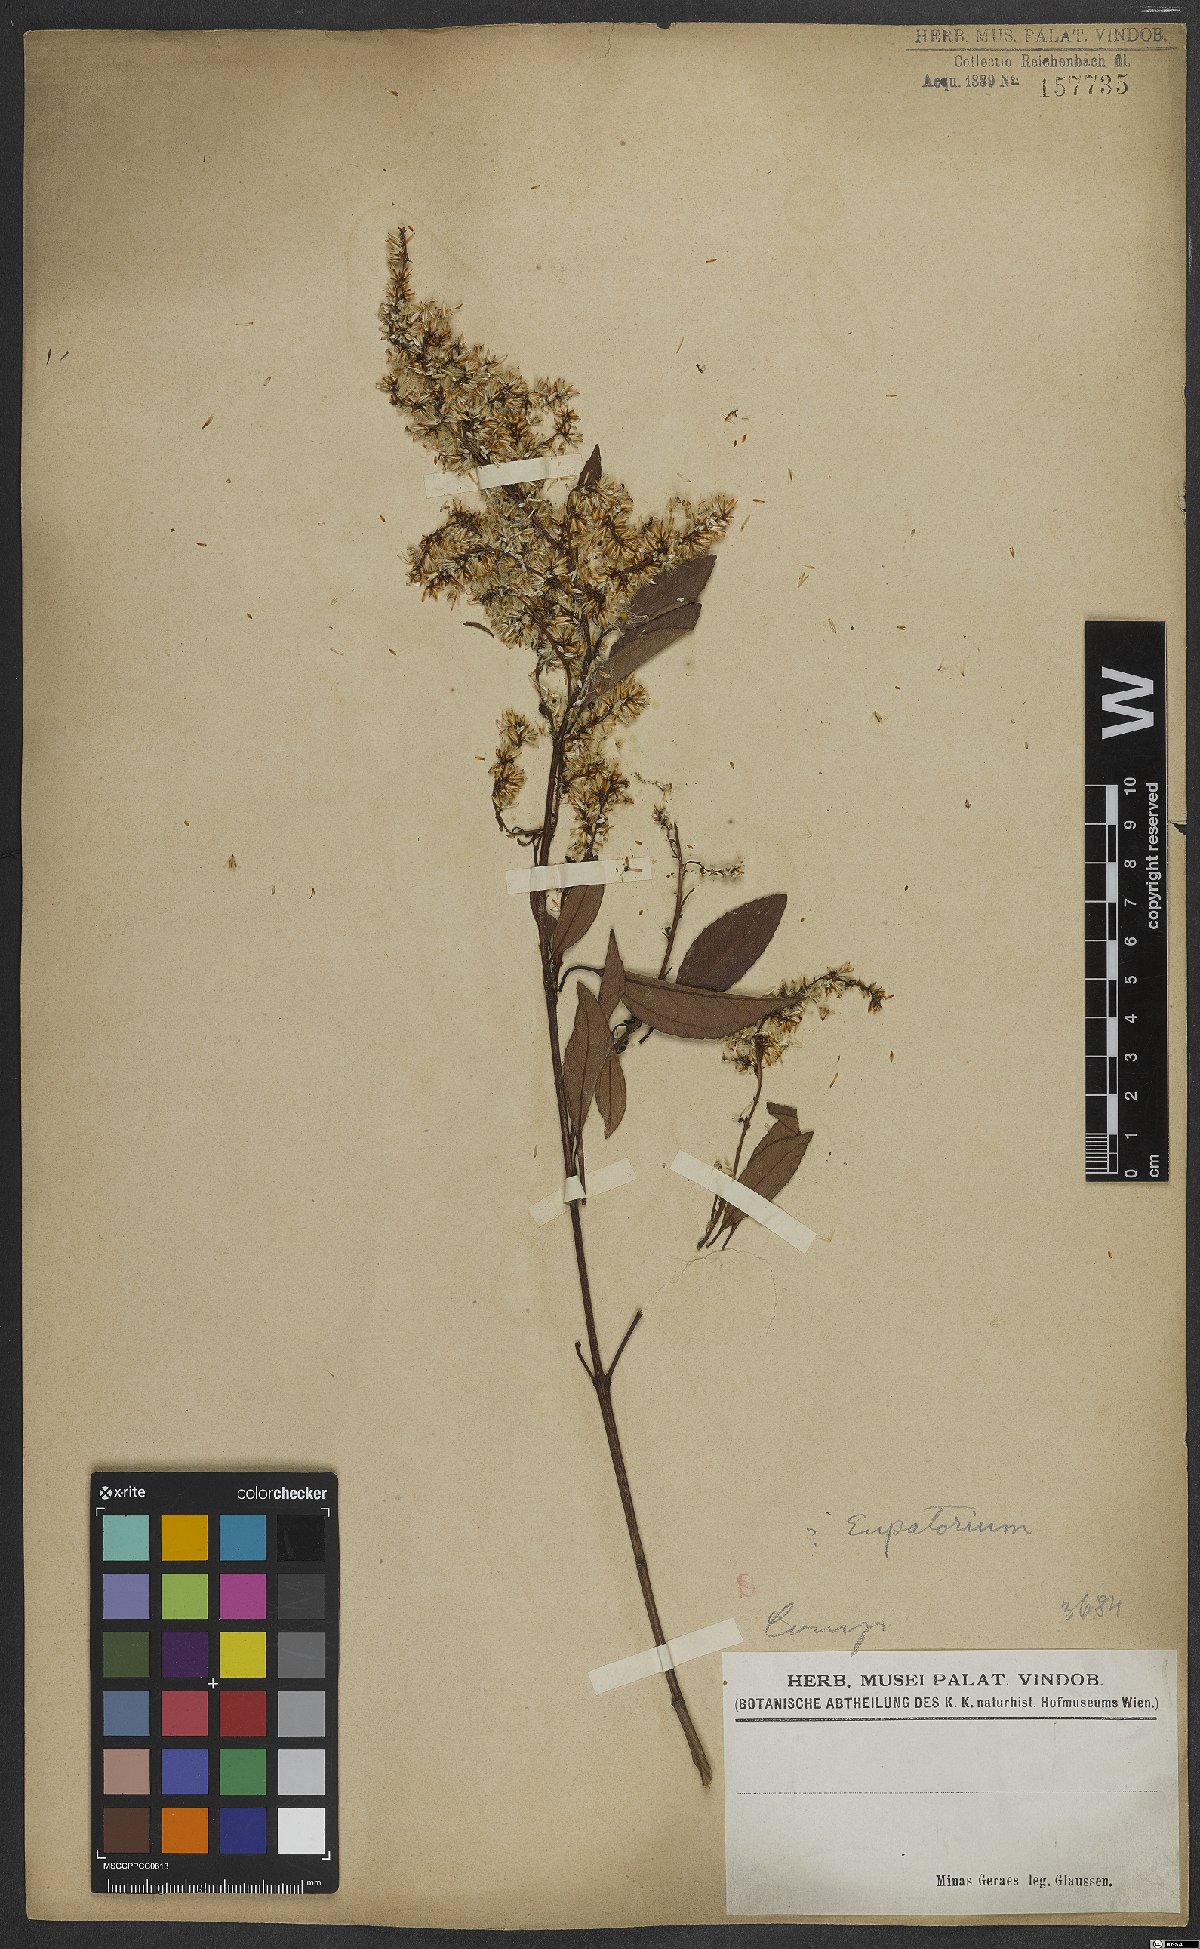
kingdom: Plantae
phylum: Tracheophyta
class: Magnoliopsida
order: Asterales
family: Asteraceae
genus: Eupatorium
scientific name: Eupatorium
